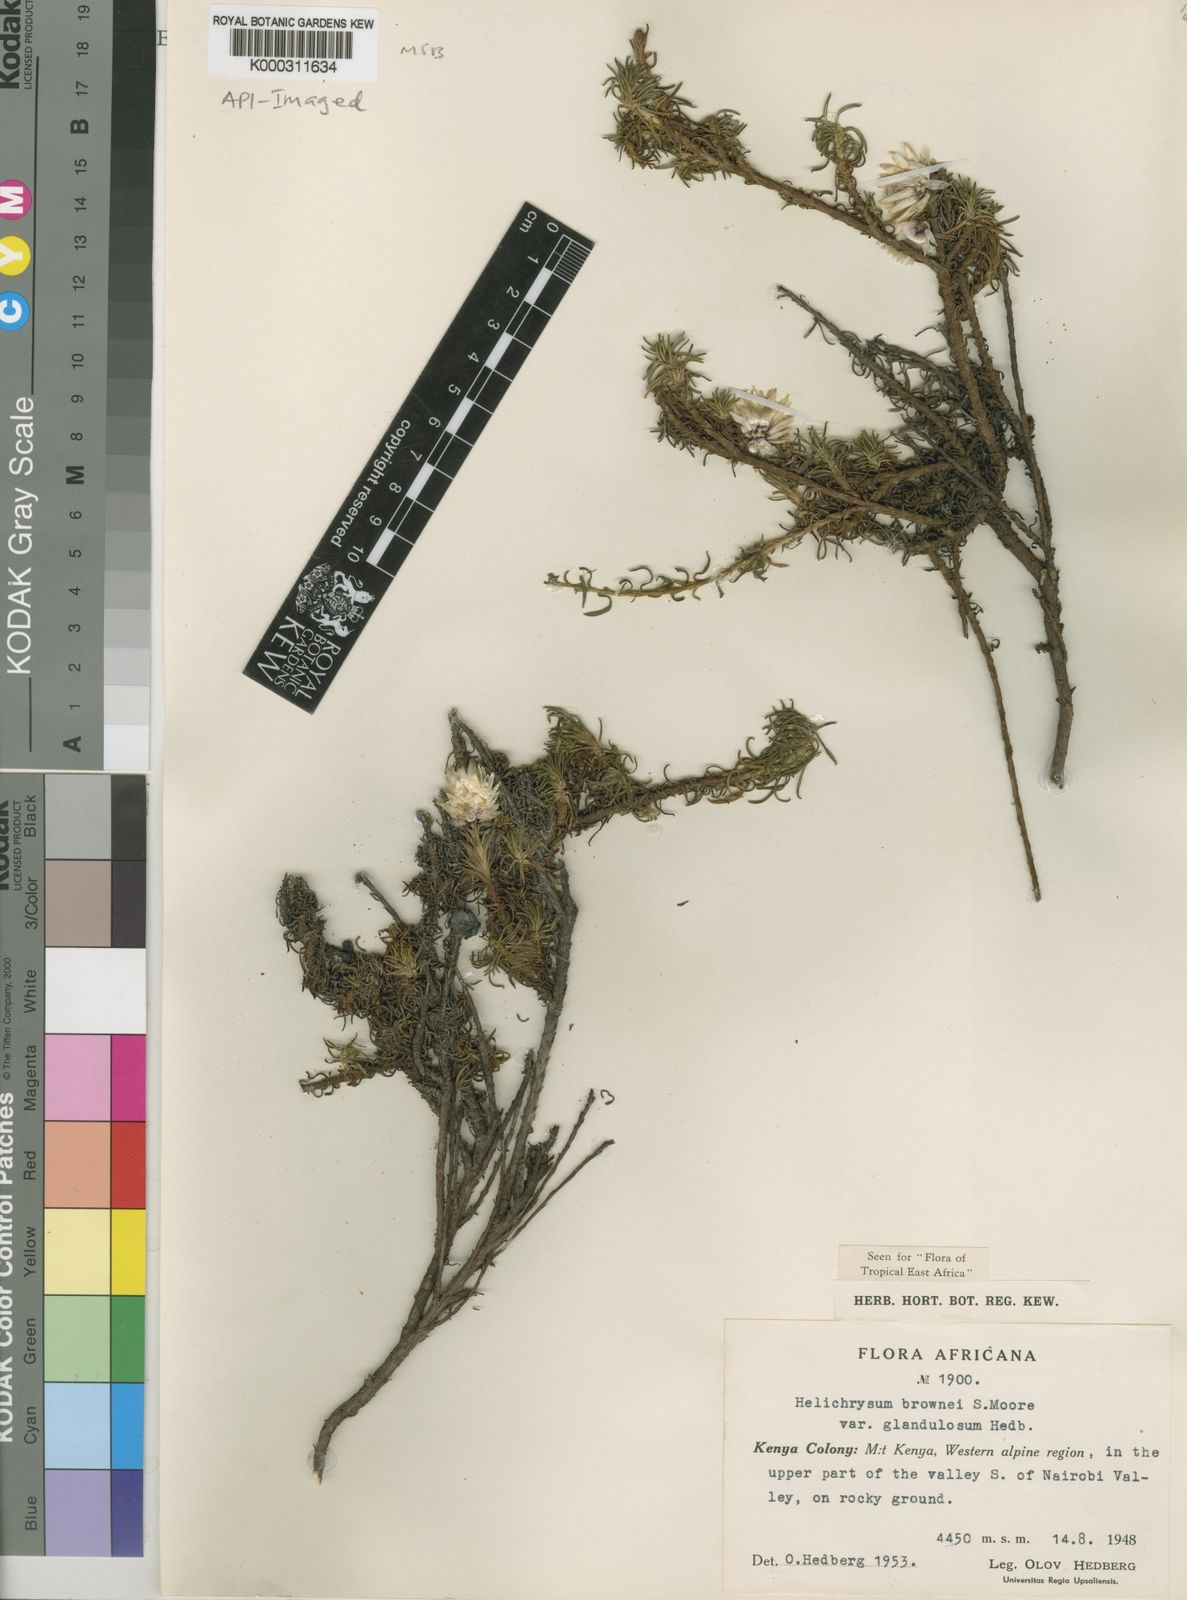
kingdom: Plantae
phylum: Tracheophyta
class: Magnoliopsida
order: Asterales
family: Asteraceae
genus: Helichrysum
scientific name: Helichrysum brownei
